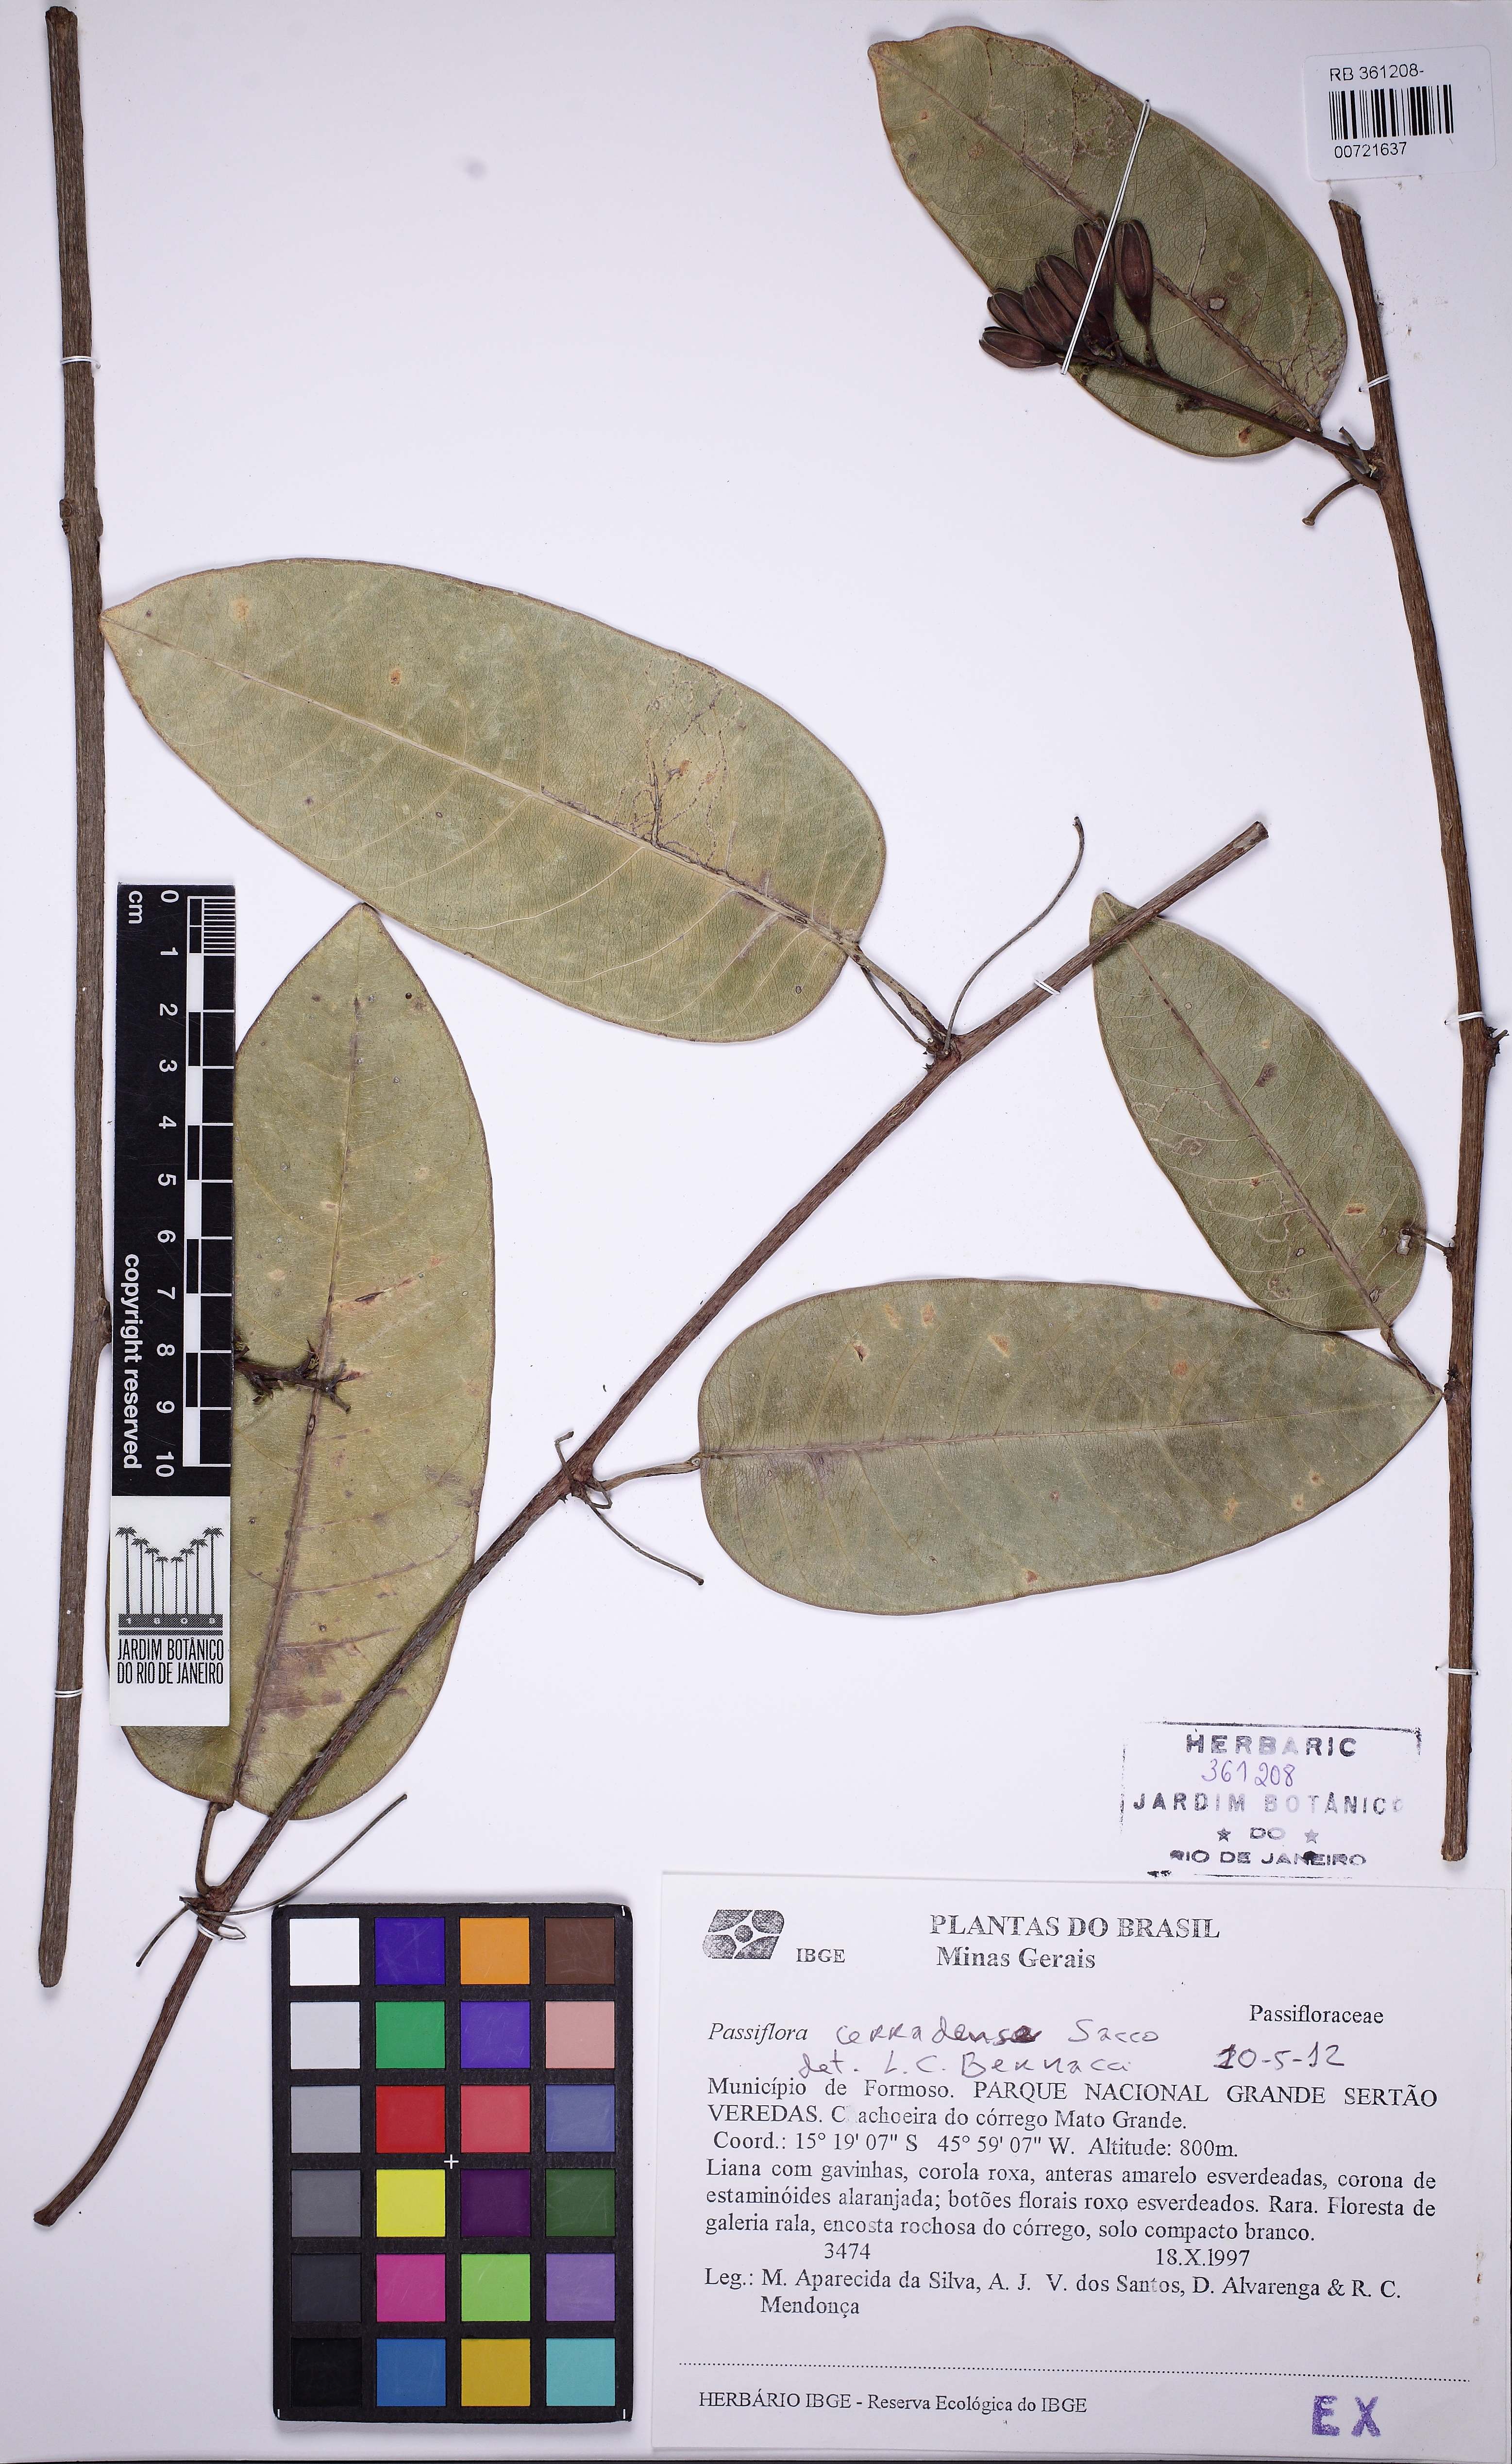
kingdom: Plantae
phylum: Tracheophyta
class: Magnoliopsida
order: Malpighiales
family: Passifloraceae
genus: Passiflora
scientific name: Passiflora cerradensis
